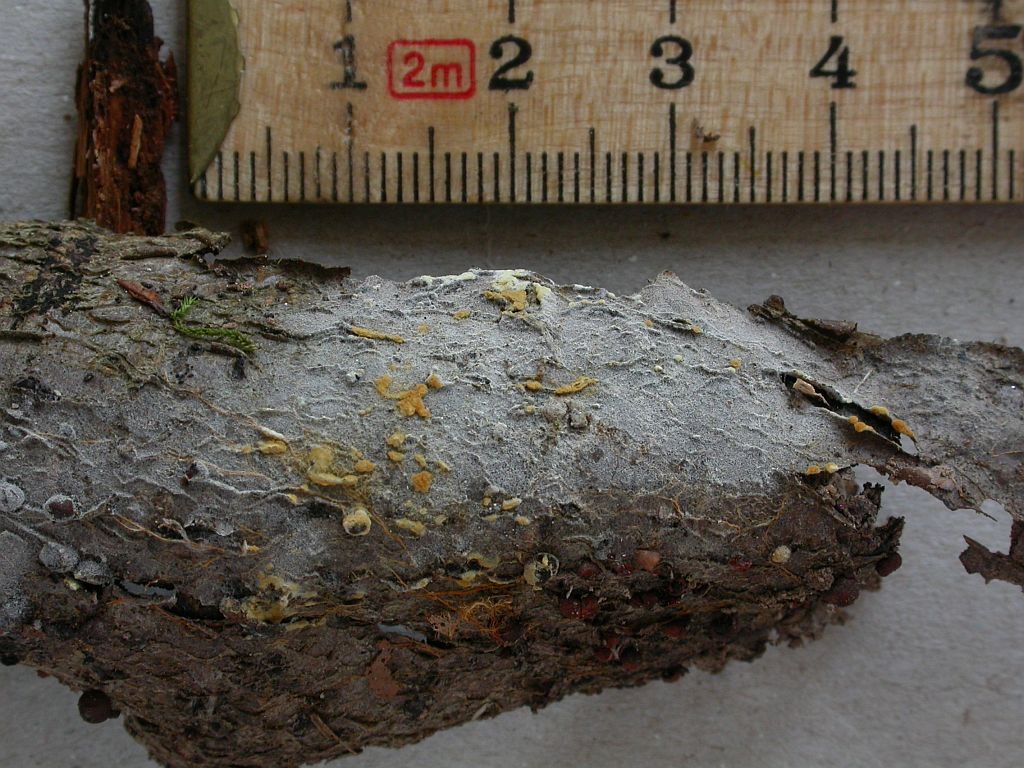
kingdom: Fungi
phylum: Basidiomycota
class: Agaricomycetes
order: Cantharellales
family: Botryobasidiaceae
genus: Botryobasidium
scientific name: Botryobasidium aureum
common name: gylden spindhinde
